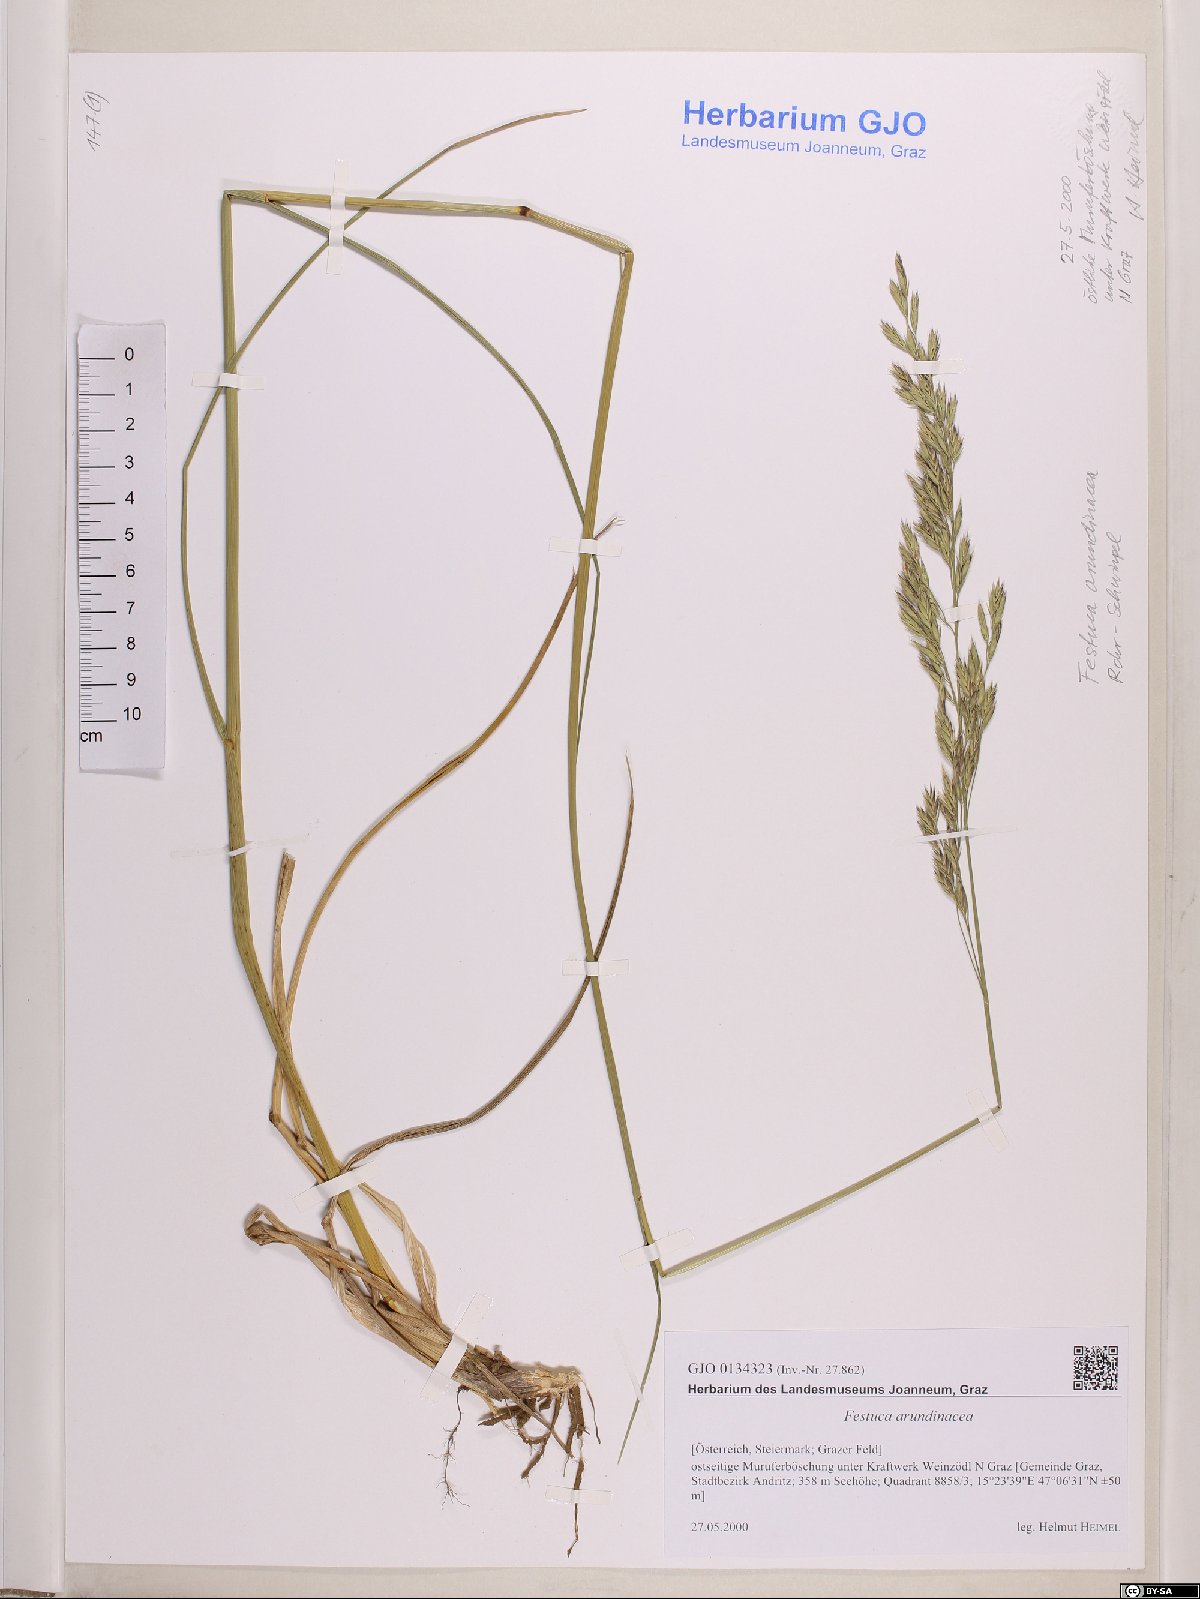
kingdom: Plantae
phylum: Tracheophyta
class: Liliopsida
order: Poales
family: Poaceae
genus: Lolium
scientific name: Lolium arundinaceum
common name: Reed fescue
